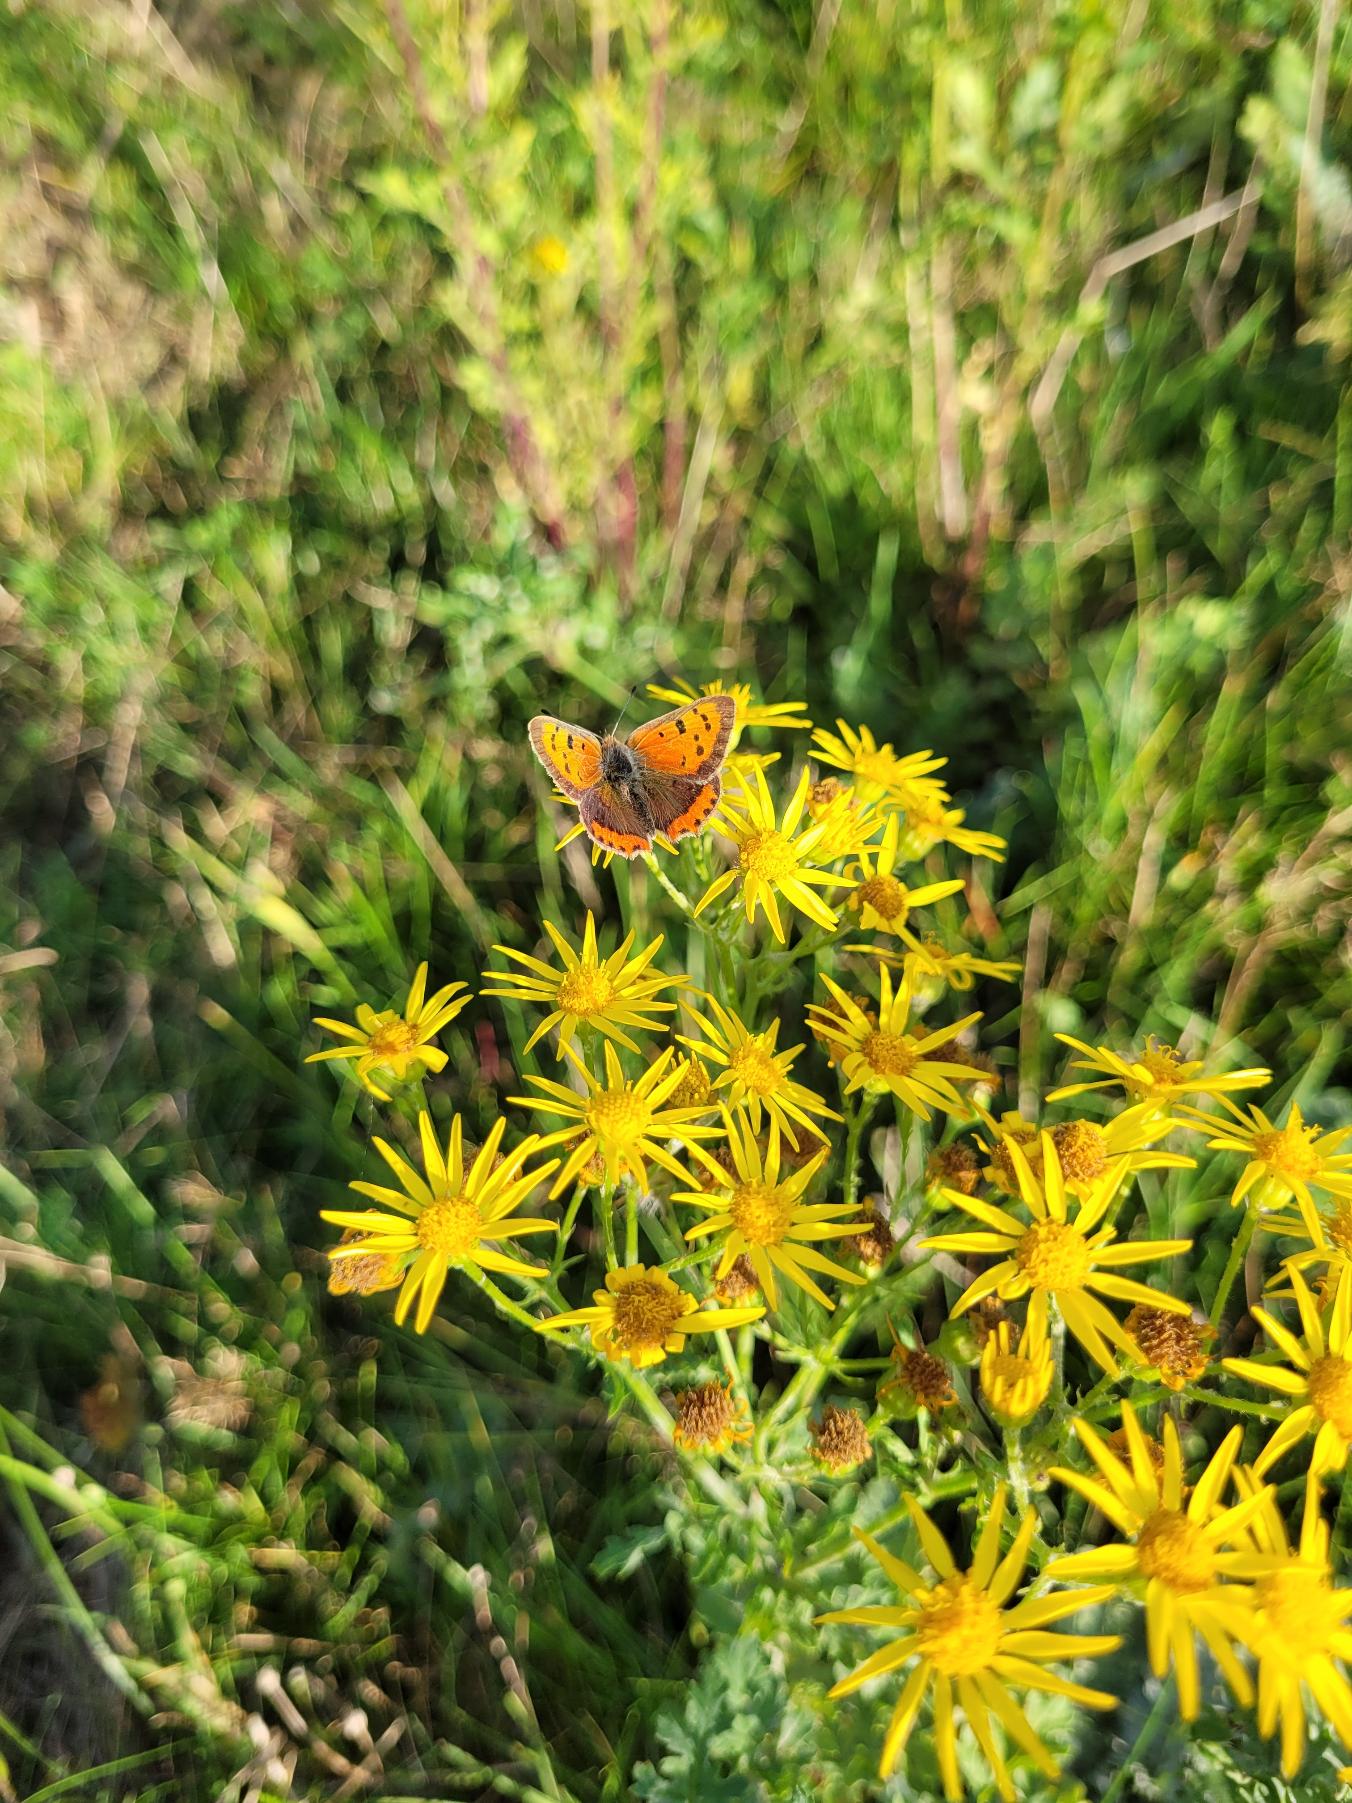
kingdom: Animalia
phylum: Arthropoda
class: Insecta
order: Lepidoptera
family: Lycaenidae
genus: Lycaena
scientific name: Lycaena phlaeas
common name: Lille ildfugl
